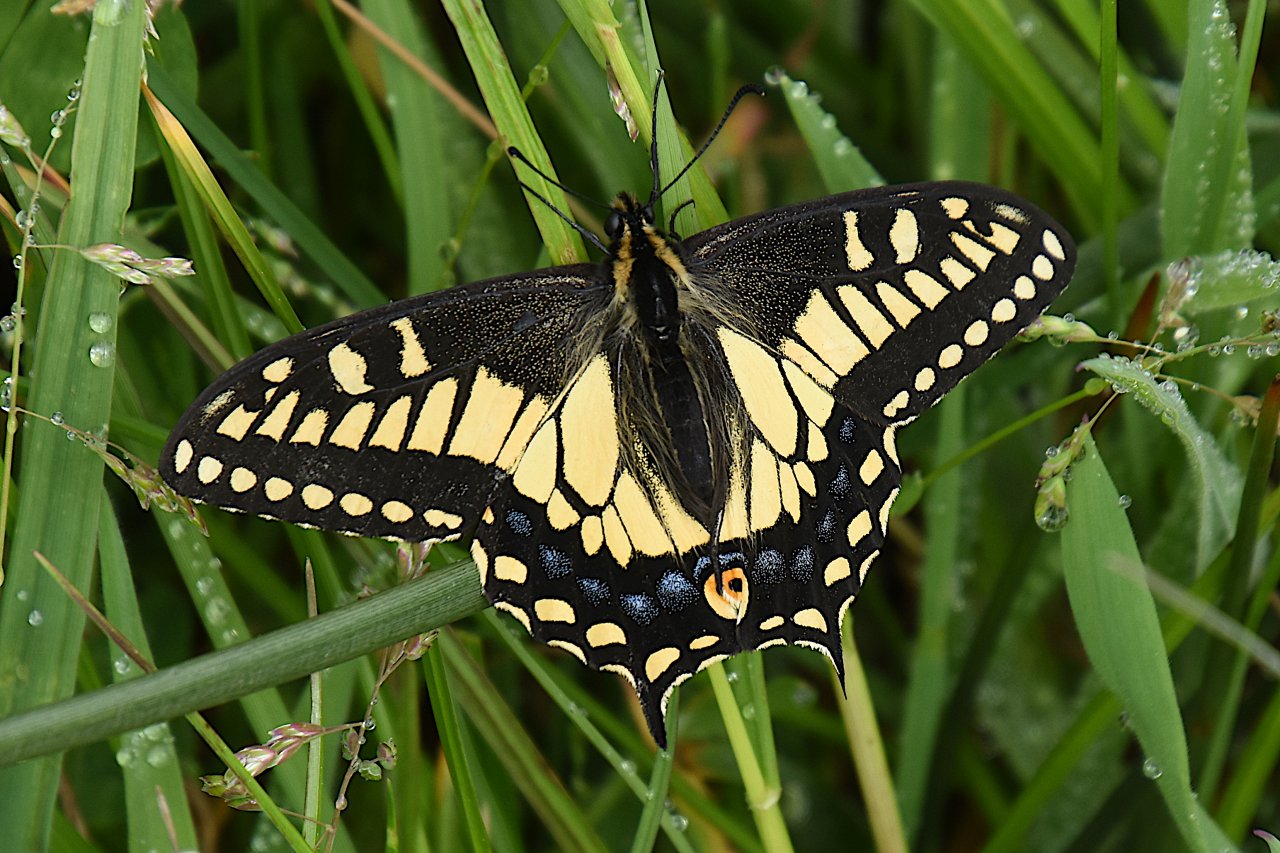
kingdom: Animalia
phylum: Arthropoda
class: Insecta
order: Lepidoptera
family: Papilionidae
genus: Papilio
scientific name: Papilio zelicaon
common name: Anise Swallowtail
